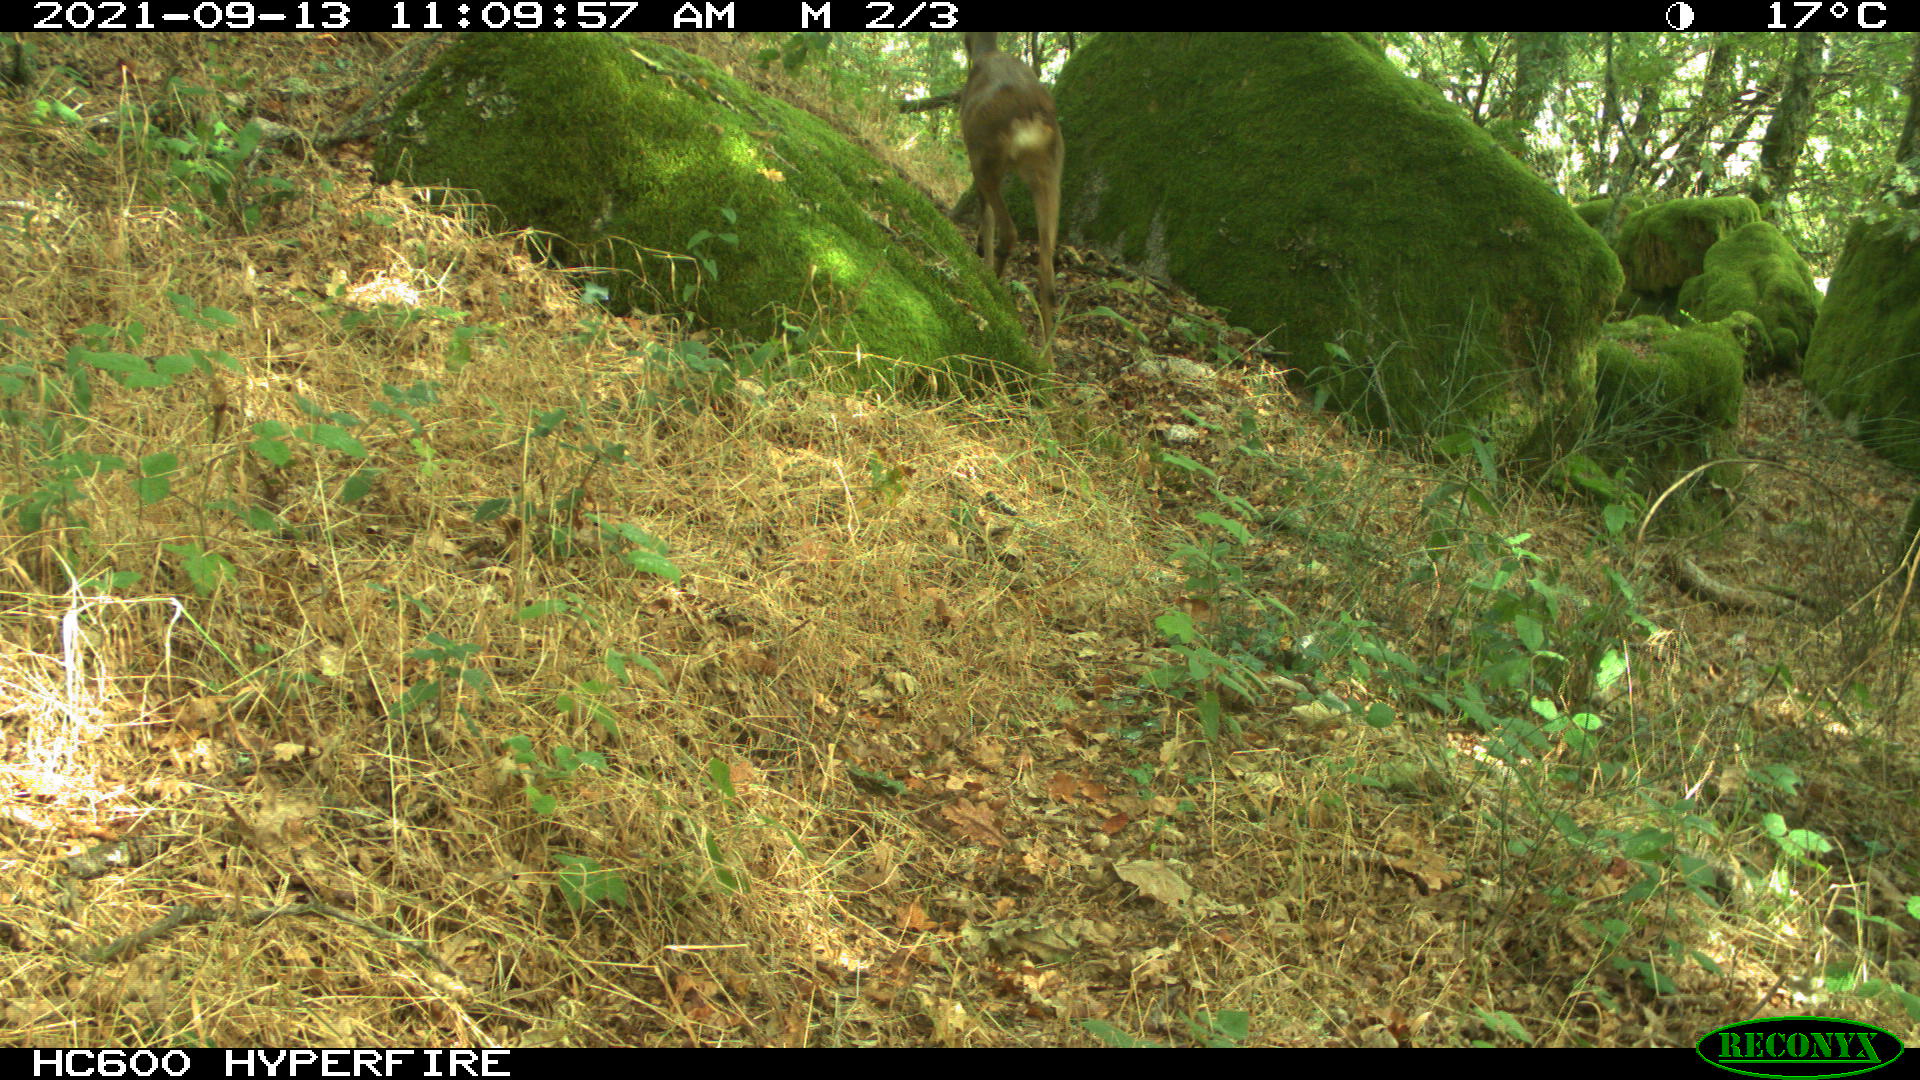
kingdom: Animalia
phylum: Chordata
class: Mammalia
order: Artiodactyla
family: Cervidae
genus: Capreolus
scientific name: Capreolus capreolus
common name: Western roe deer
